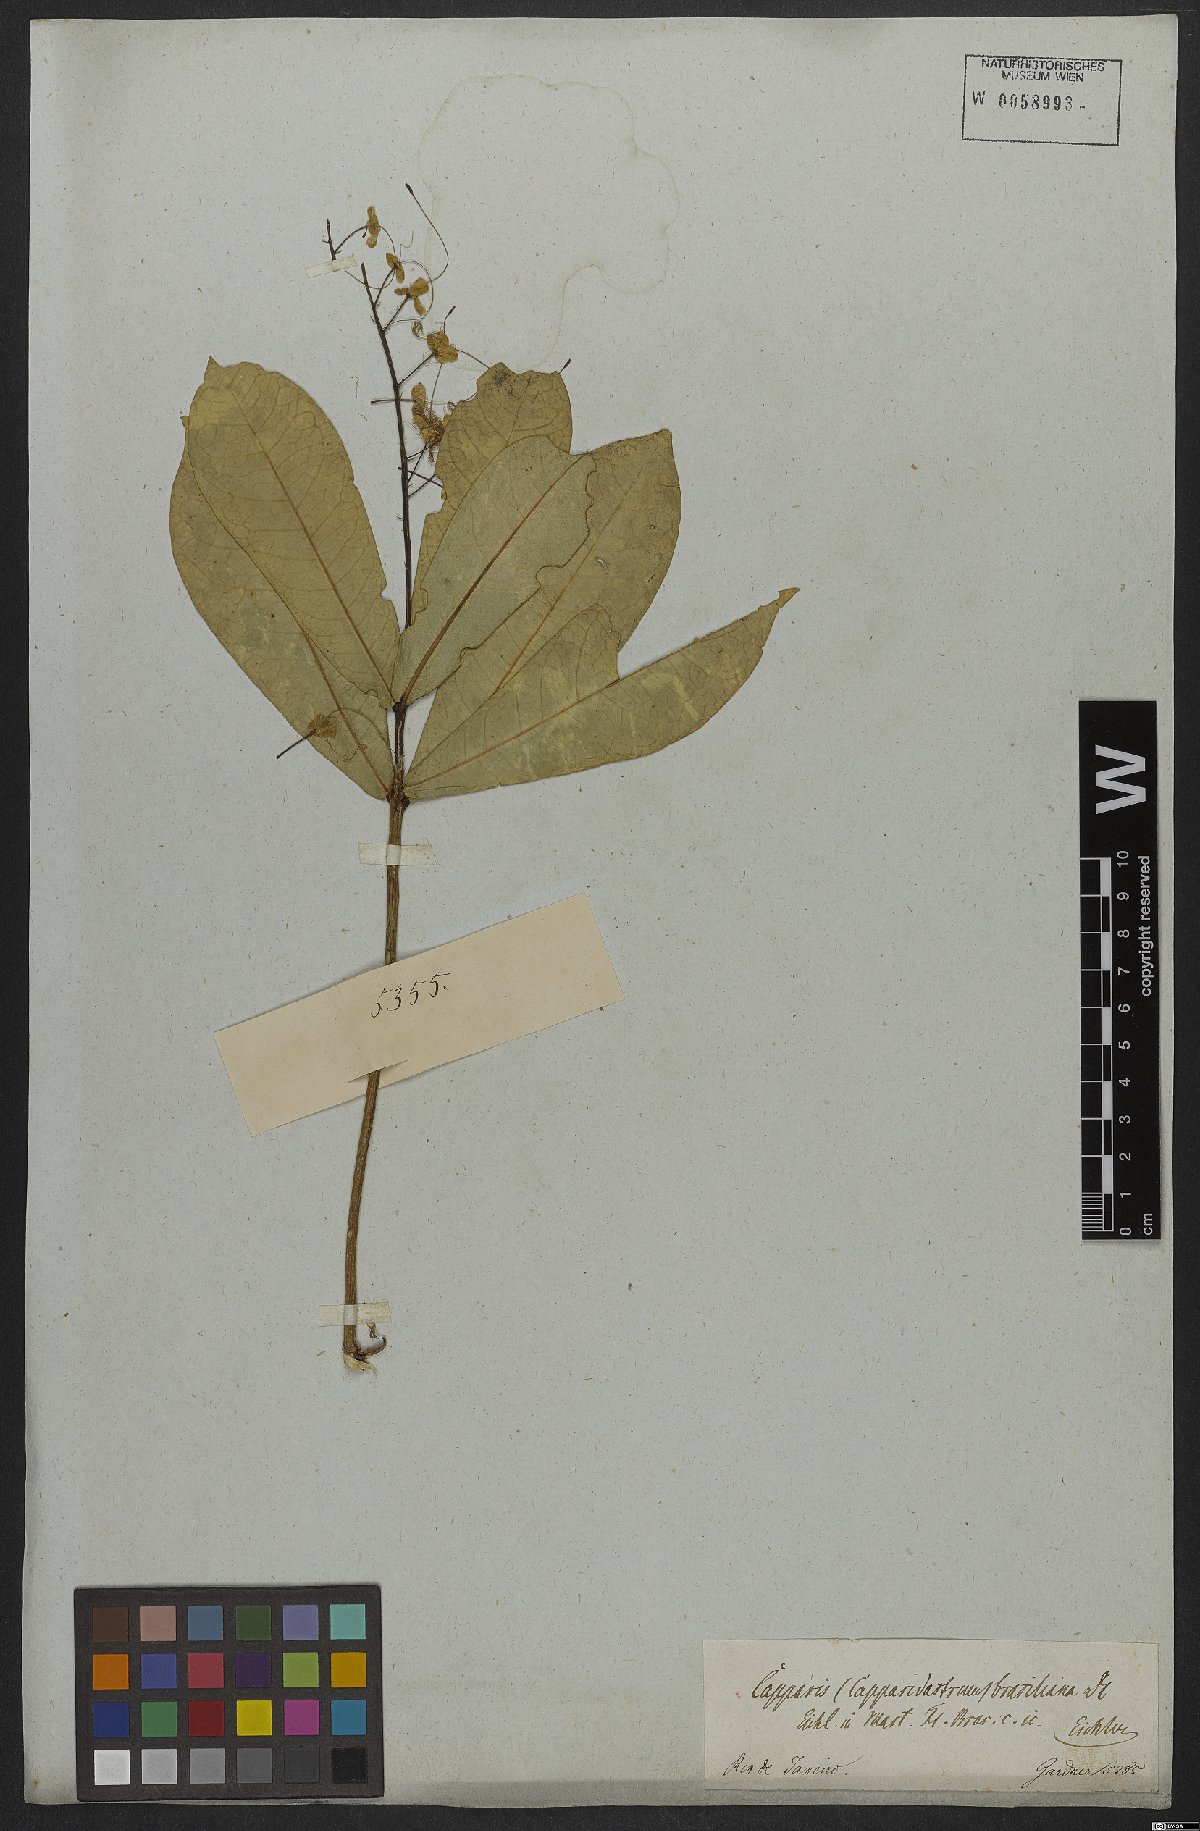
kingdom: Plantae
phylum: Tracheophyta
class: Magnoliopsida
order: Brassicales
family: Capparaceae
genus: Monilicarpa
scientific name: Monilicarpa brasiliana
